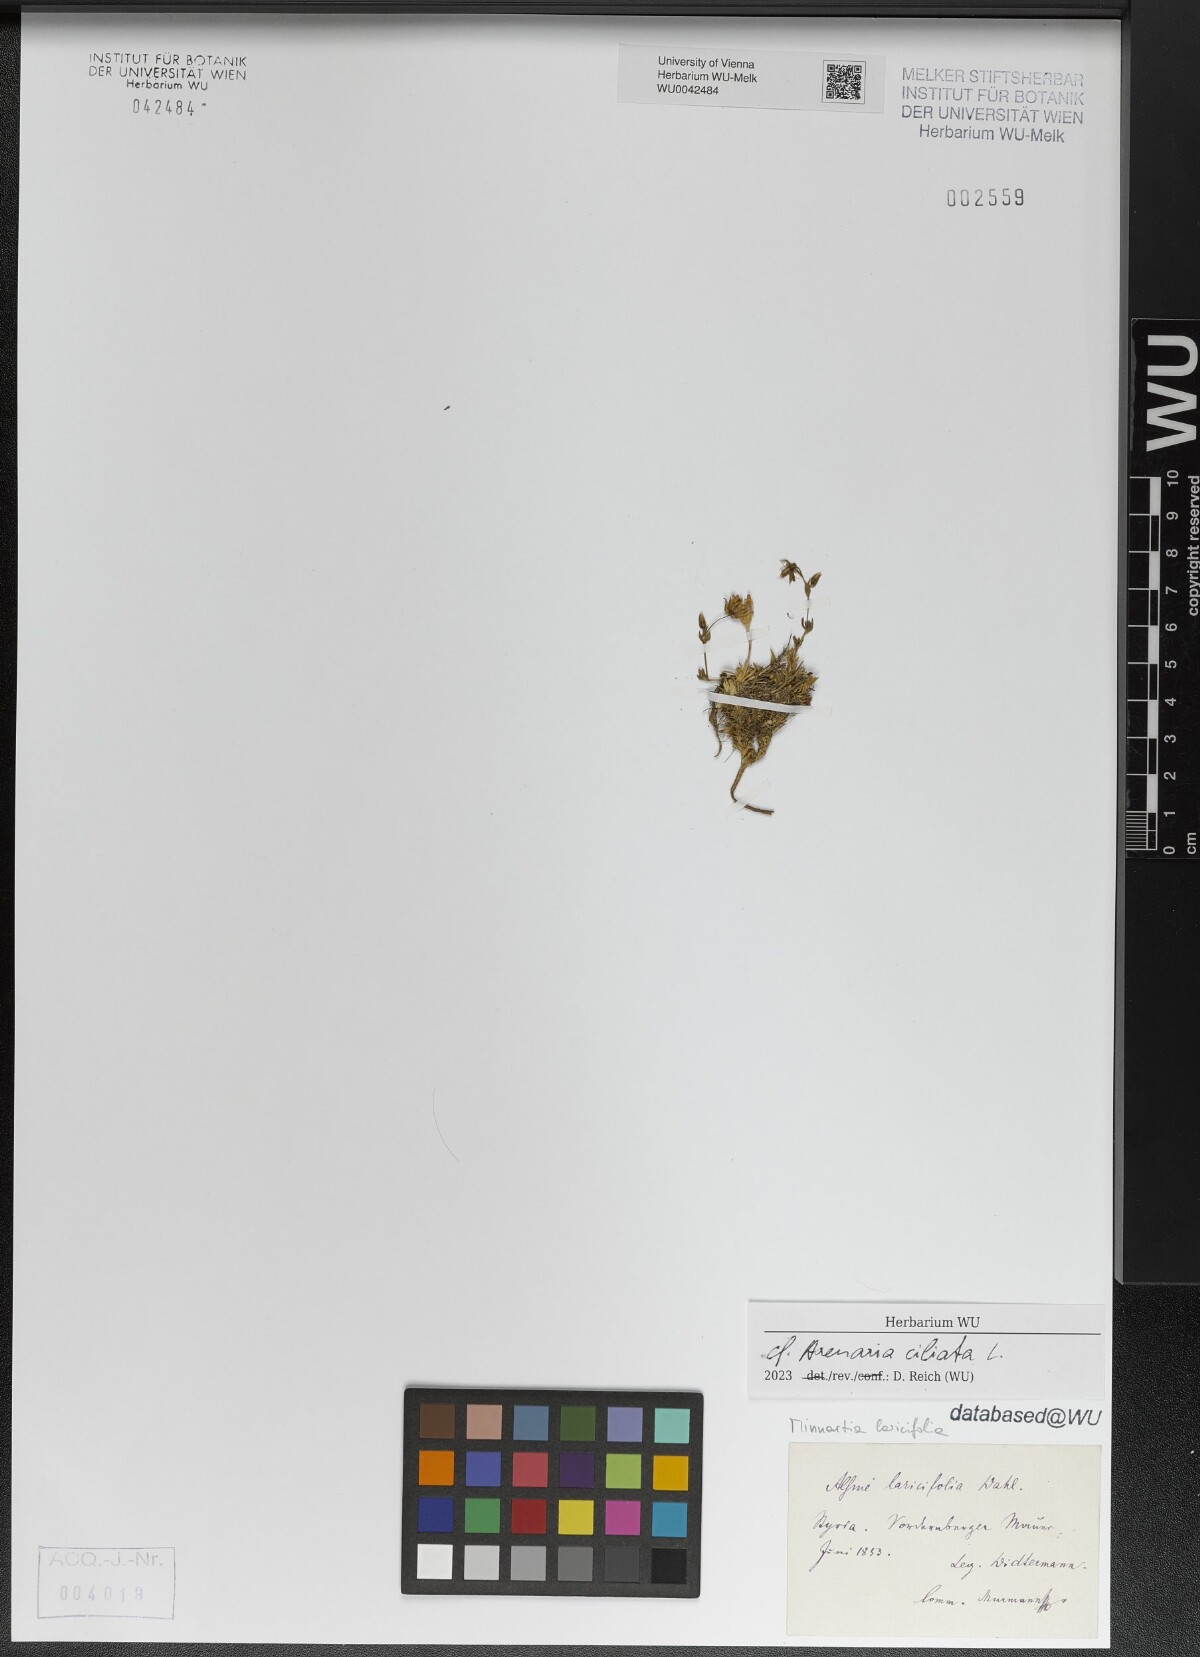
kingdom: Plantae
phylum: Tracheophyta
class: Magnoliopsida
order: Caryophyllales
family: Caryophyllaceae
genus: Arenaria
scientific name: Arenaria ciliata
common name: Fringed sandwort
